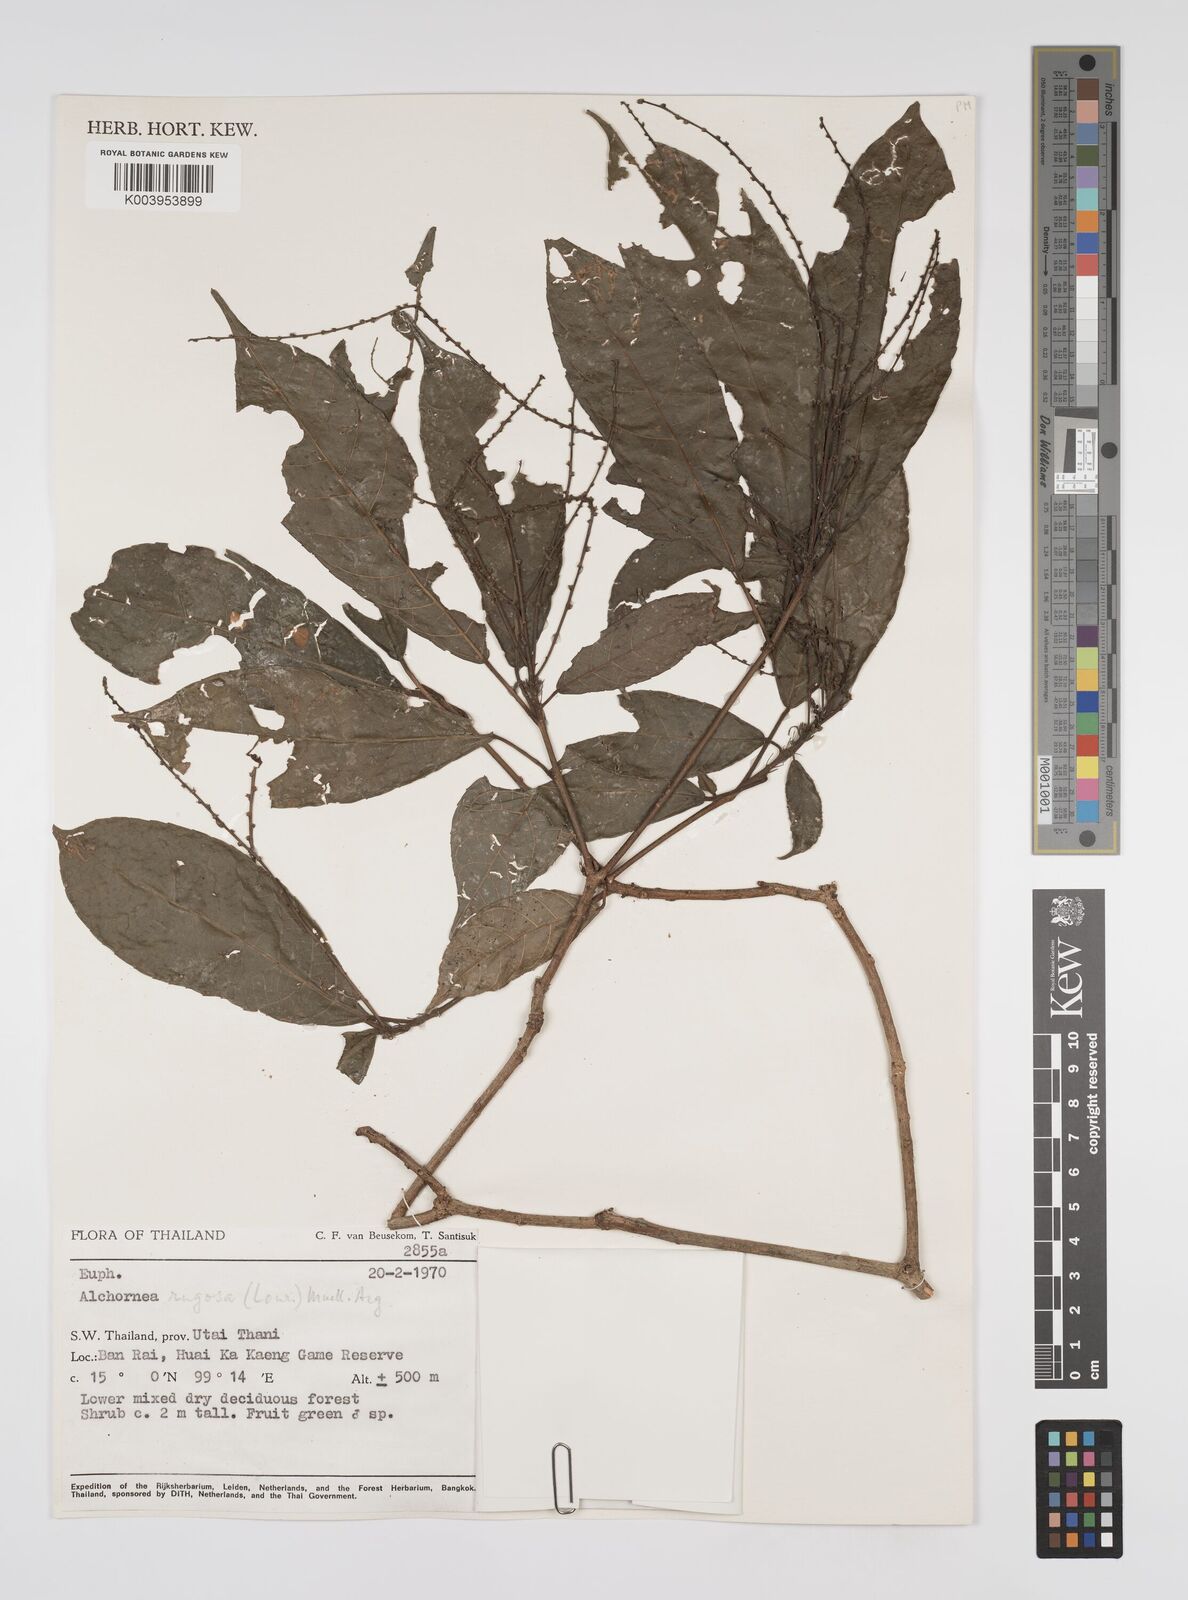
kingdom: Plantae
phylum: Tracheophyta
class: Magnoliopsida
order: Malpighiales
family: Euphorbiaceae
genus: Alchornea
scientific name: Alchornea rugosa
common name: Alchorntree
